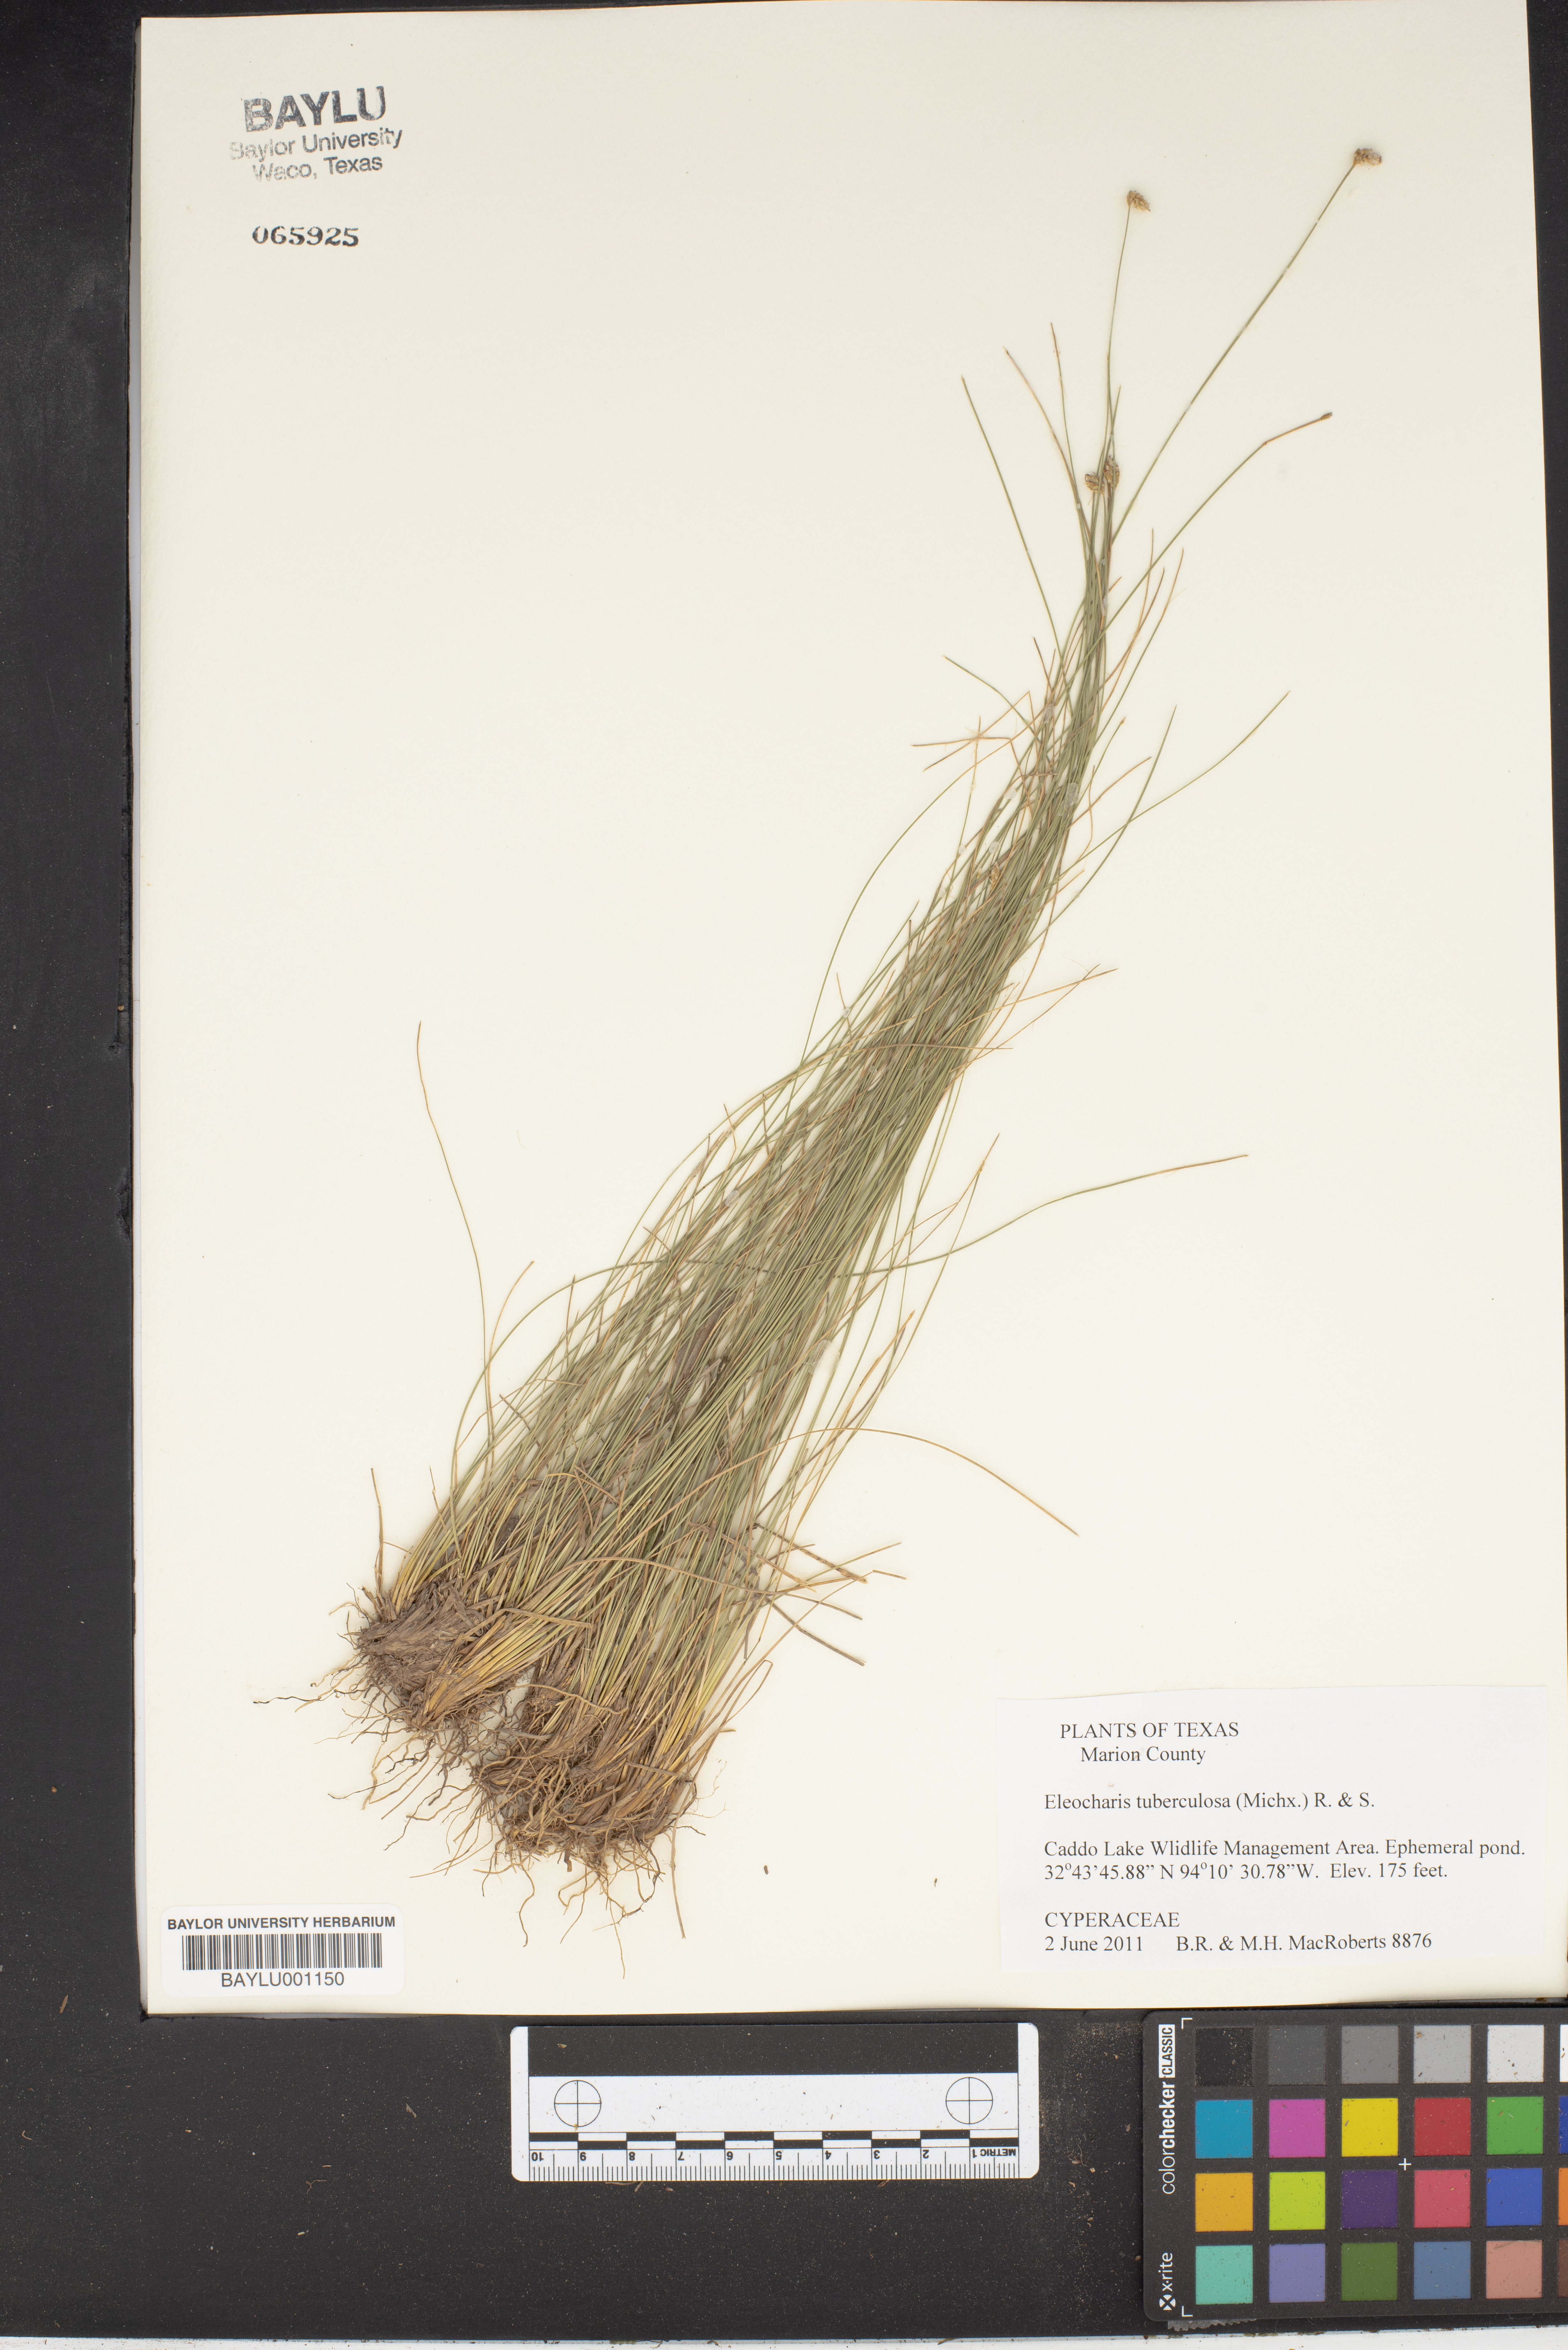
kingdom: Plantae
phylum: Tracheophyta
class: Liliopsida
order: Poales
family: Cyperaceae
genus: Eleocharis
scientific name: Eleocharis tuberculosa
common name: Cone-cup spikerush
